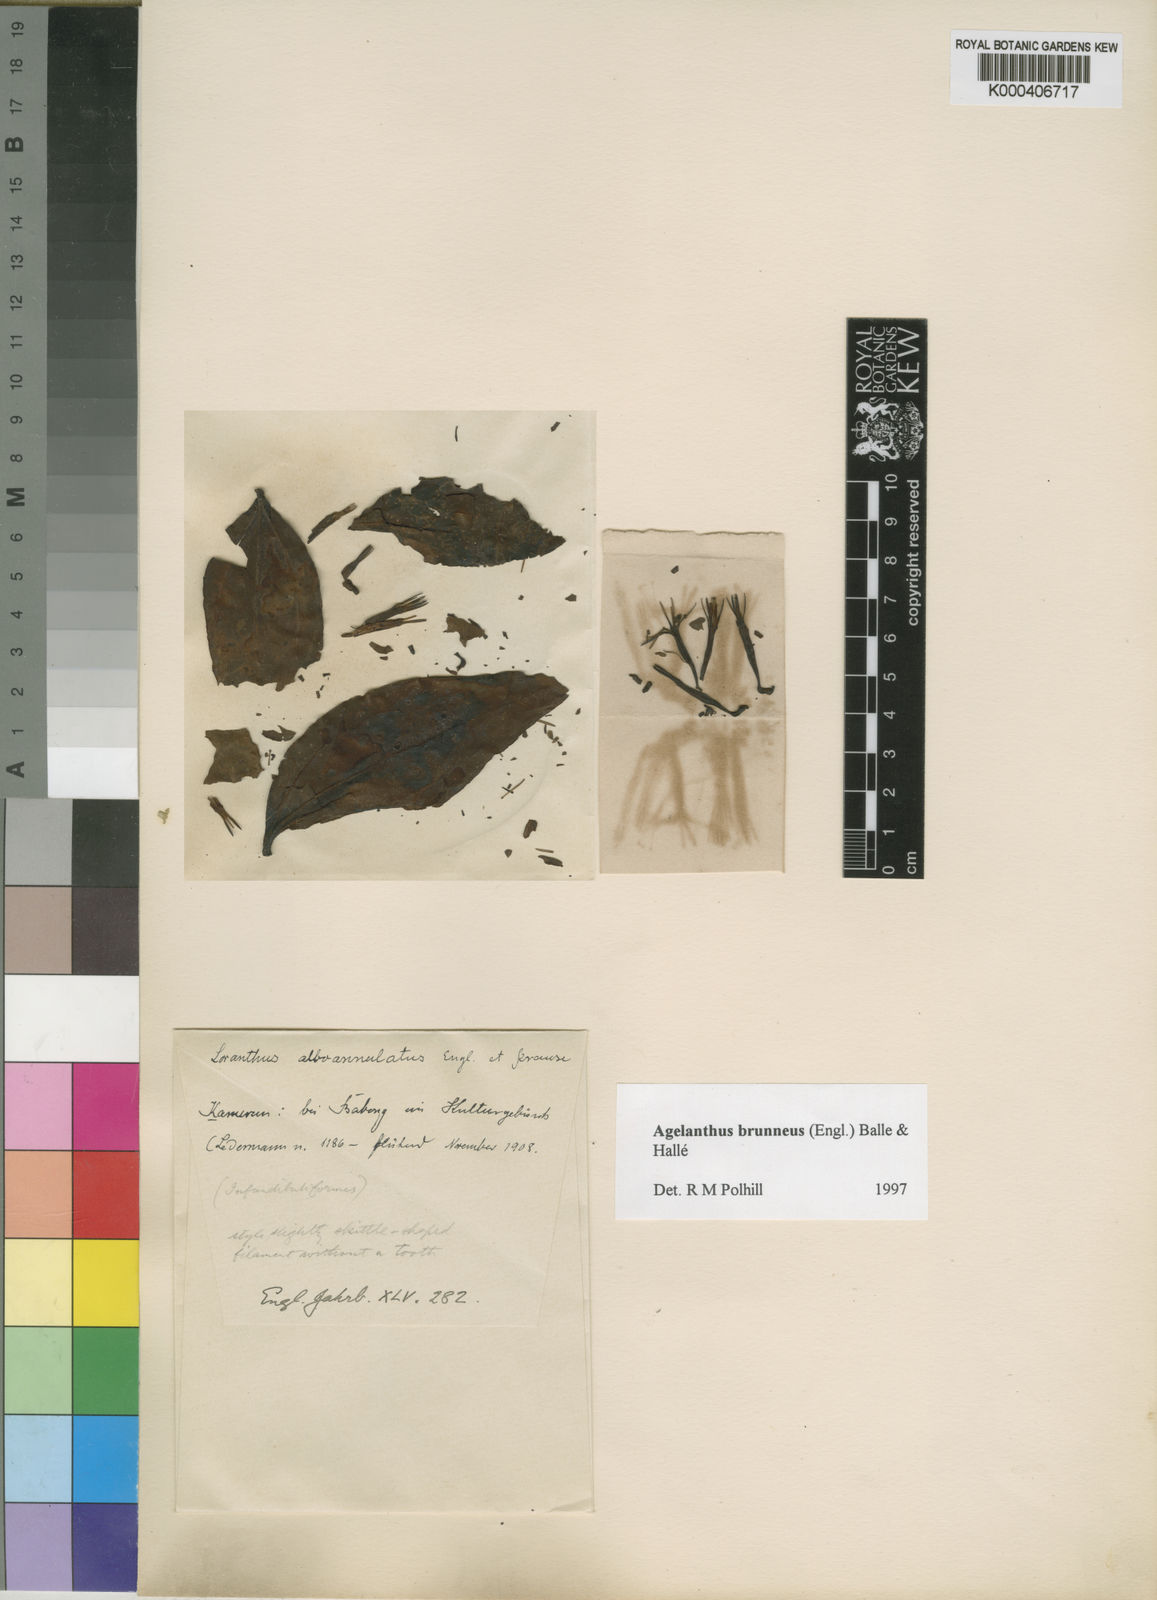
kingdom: Plantae
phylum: Tracheophyta
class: Magnoliopsida
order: Santalales
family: Loranthaceae
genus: Agelanthus
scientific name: Agelanthus
